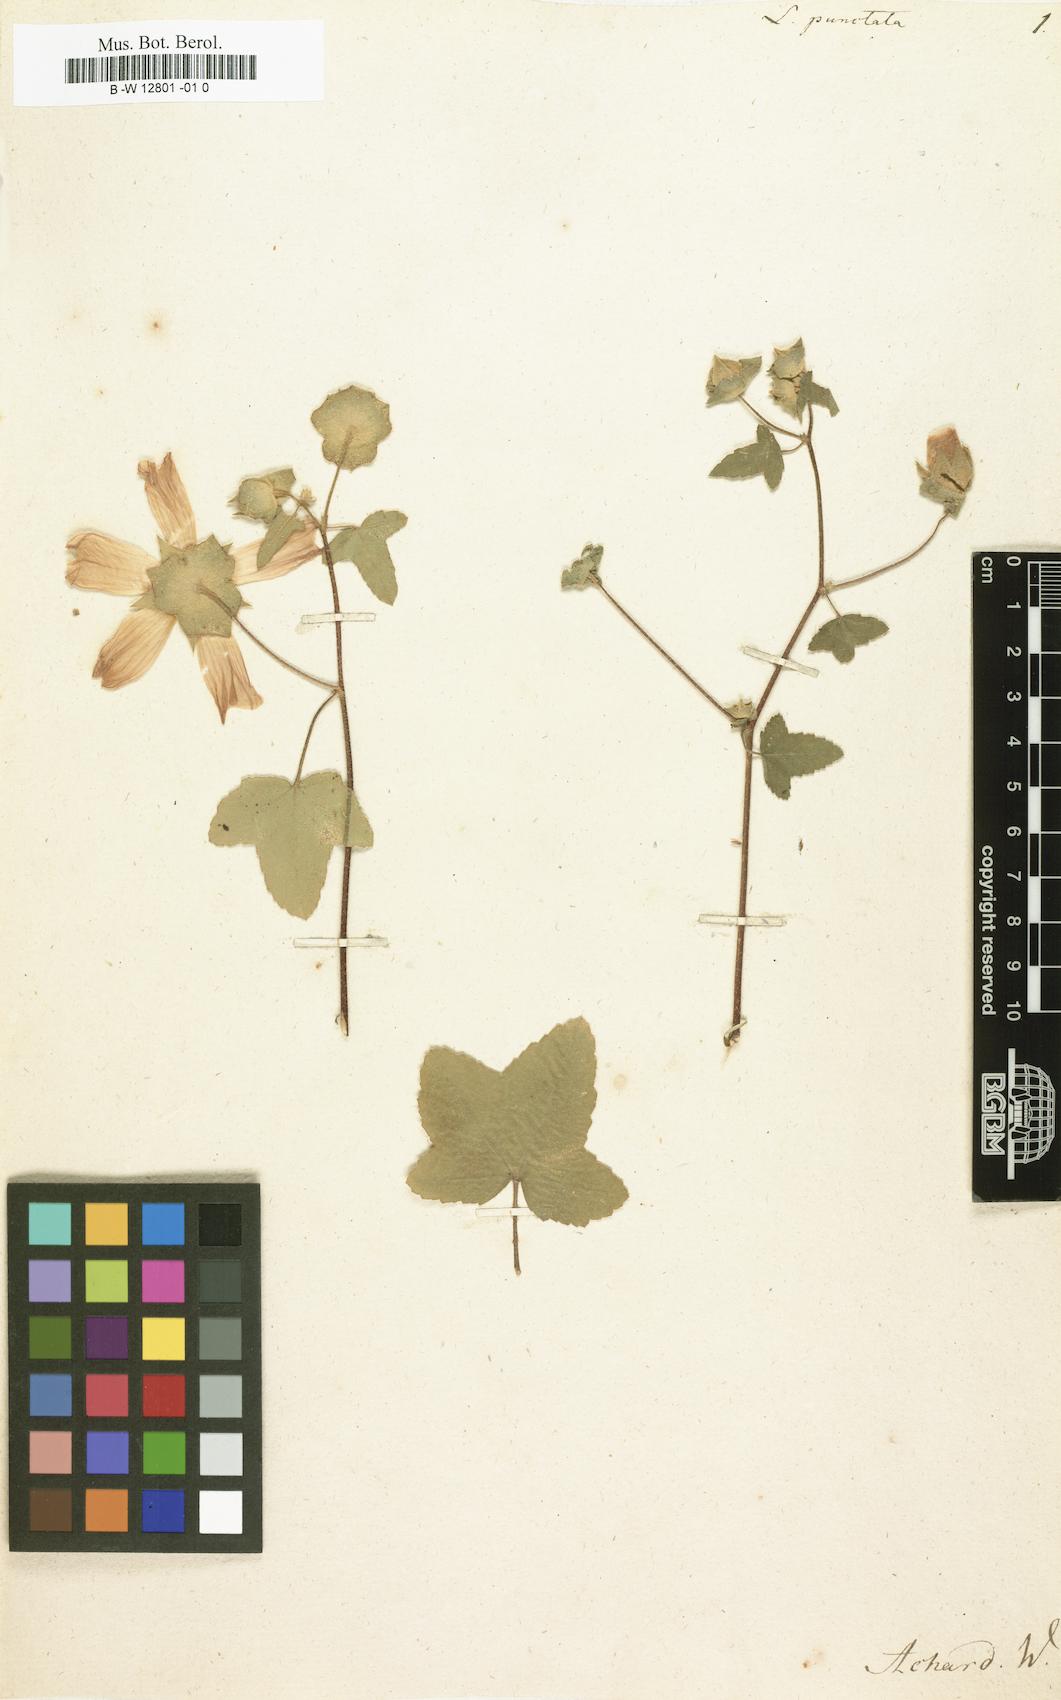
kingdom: Plantae
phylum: Tracheophyta
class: Magnoliopsida
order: Malvales
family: Malvaceae
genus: Malva
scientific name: Malva punctata
